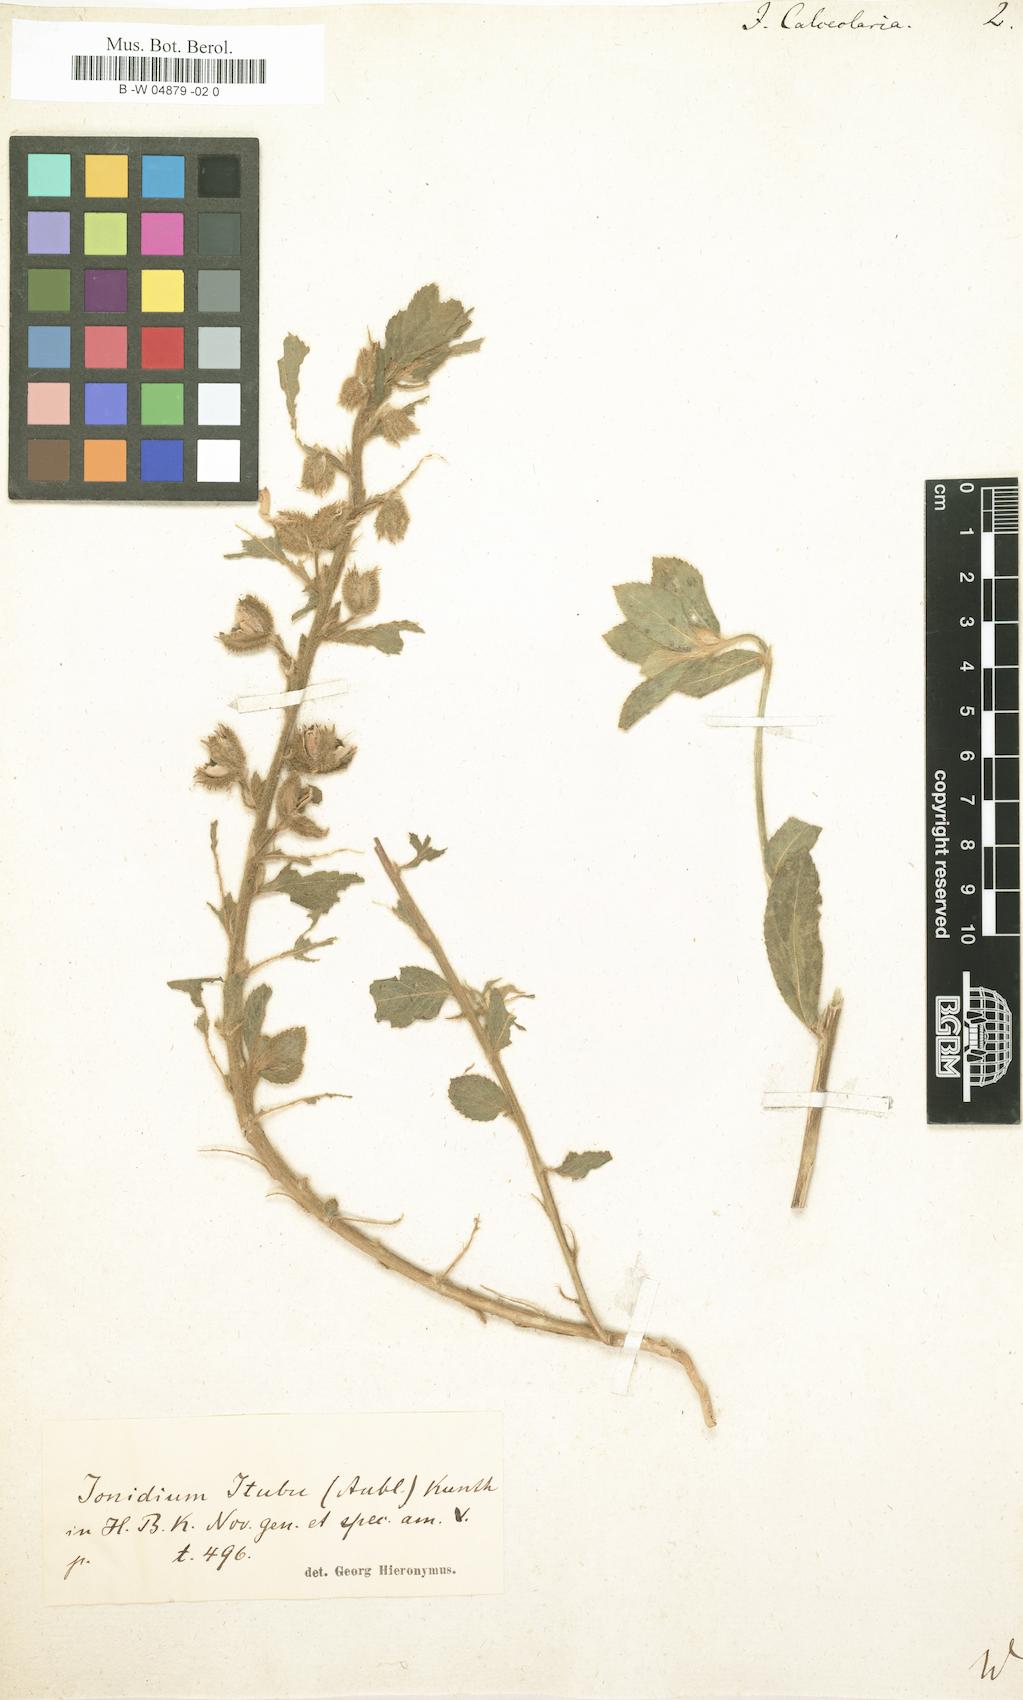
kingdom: Plantae
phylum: Tracheophyta
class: Magnoliopsida
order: Malpighiales
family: Violaceae
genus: Pombalia
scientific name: Pombalia calceolaria
